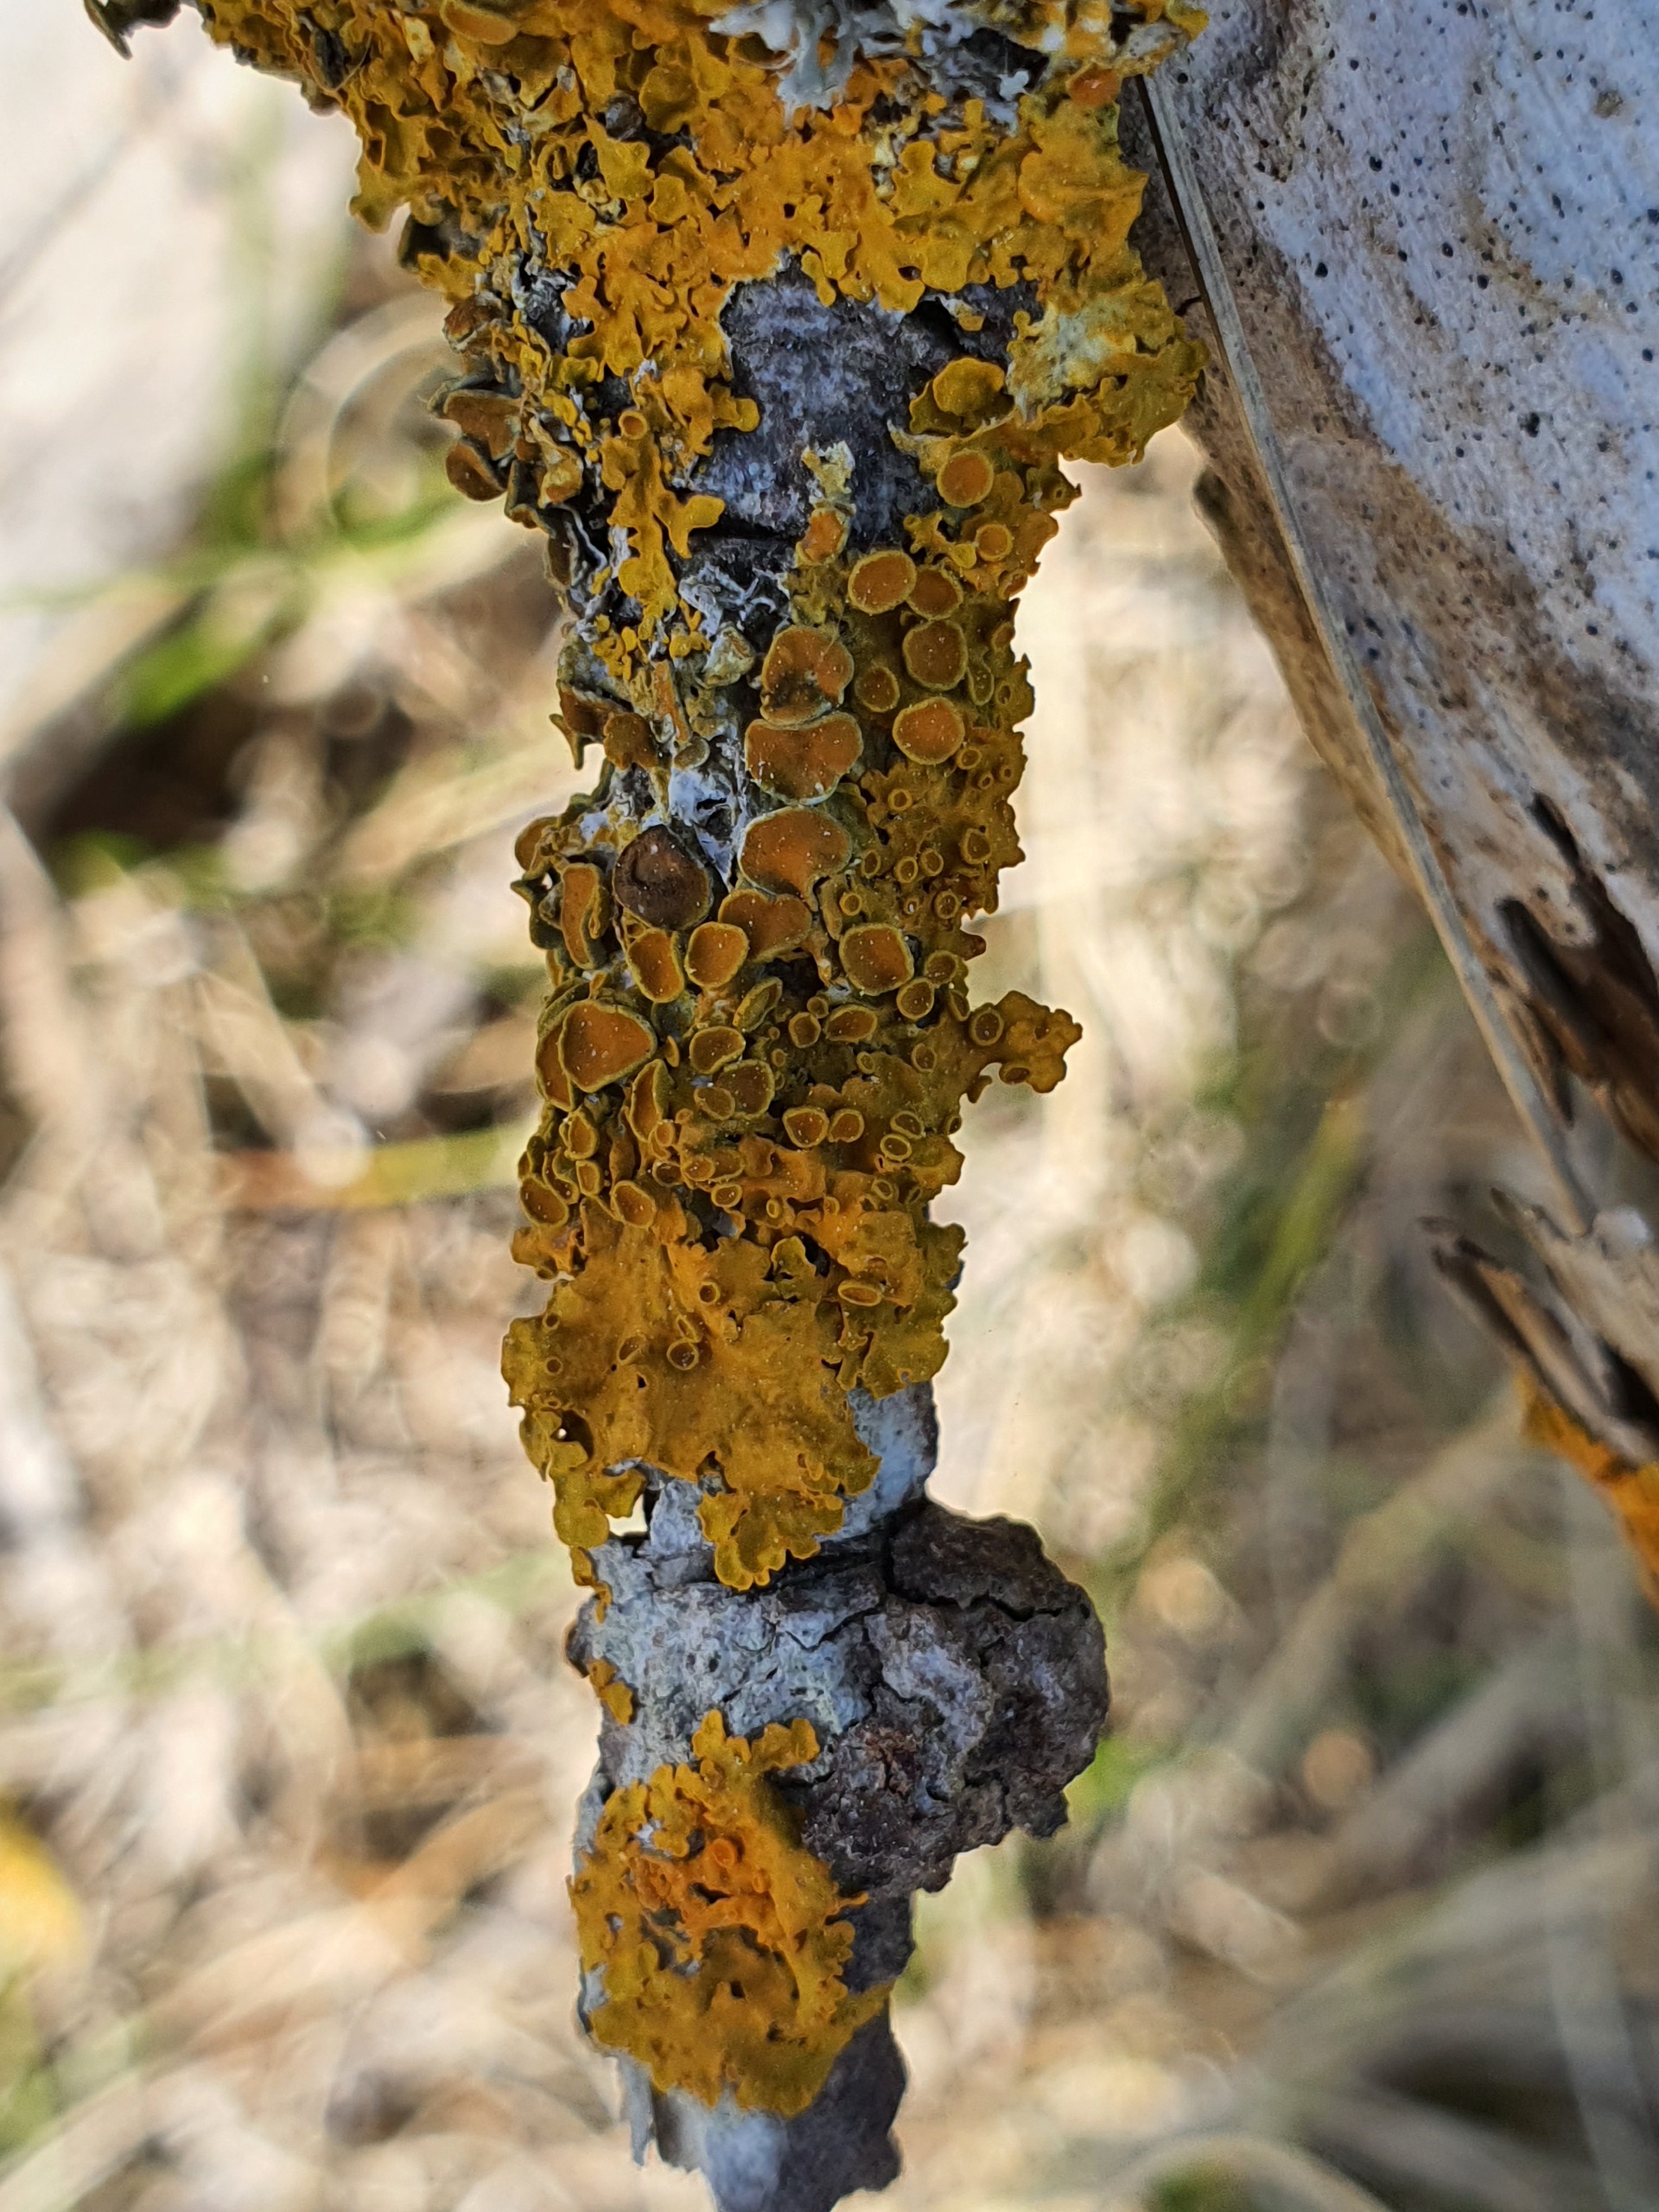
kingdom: Fungi
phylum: Ascomycota
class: Lecanoromycetes
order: Teloschistales
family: Teloschistaceae
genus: Xanthoria
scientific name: Xanthoria parietina
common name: Almindelig væggelav
